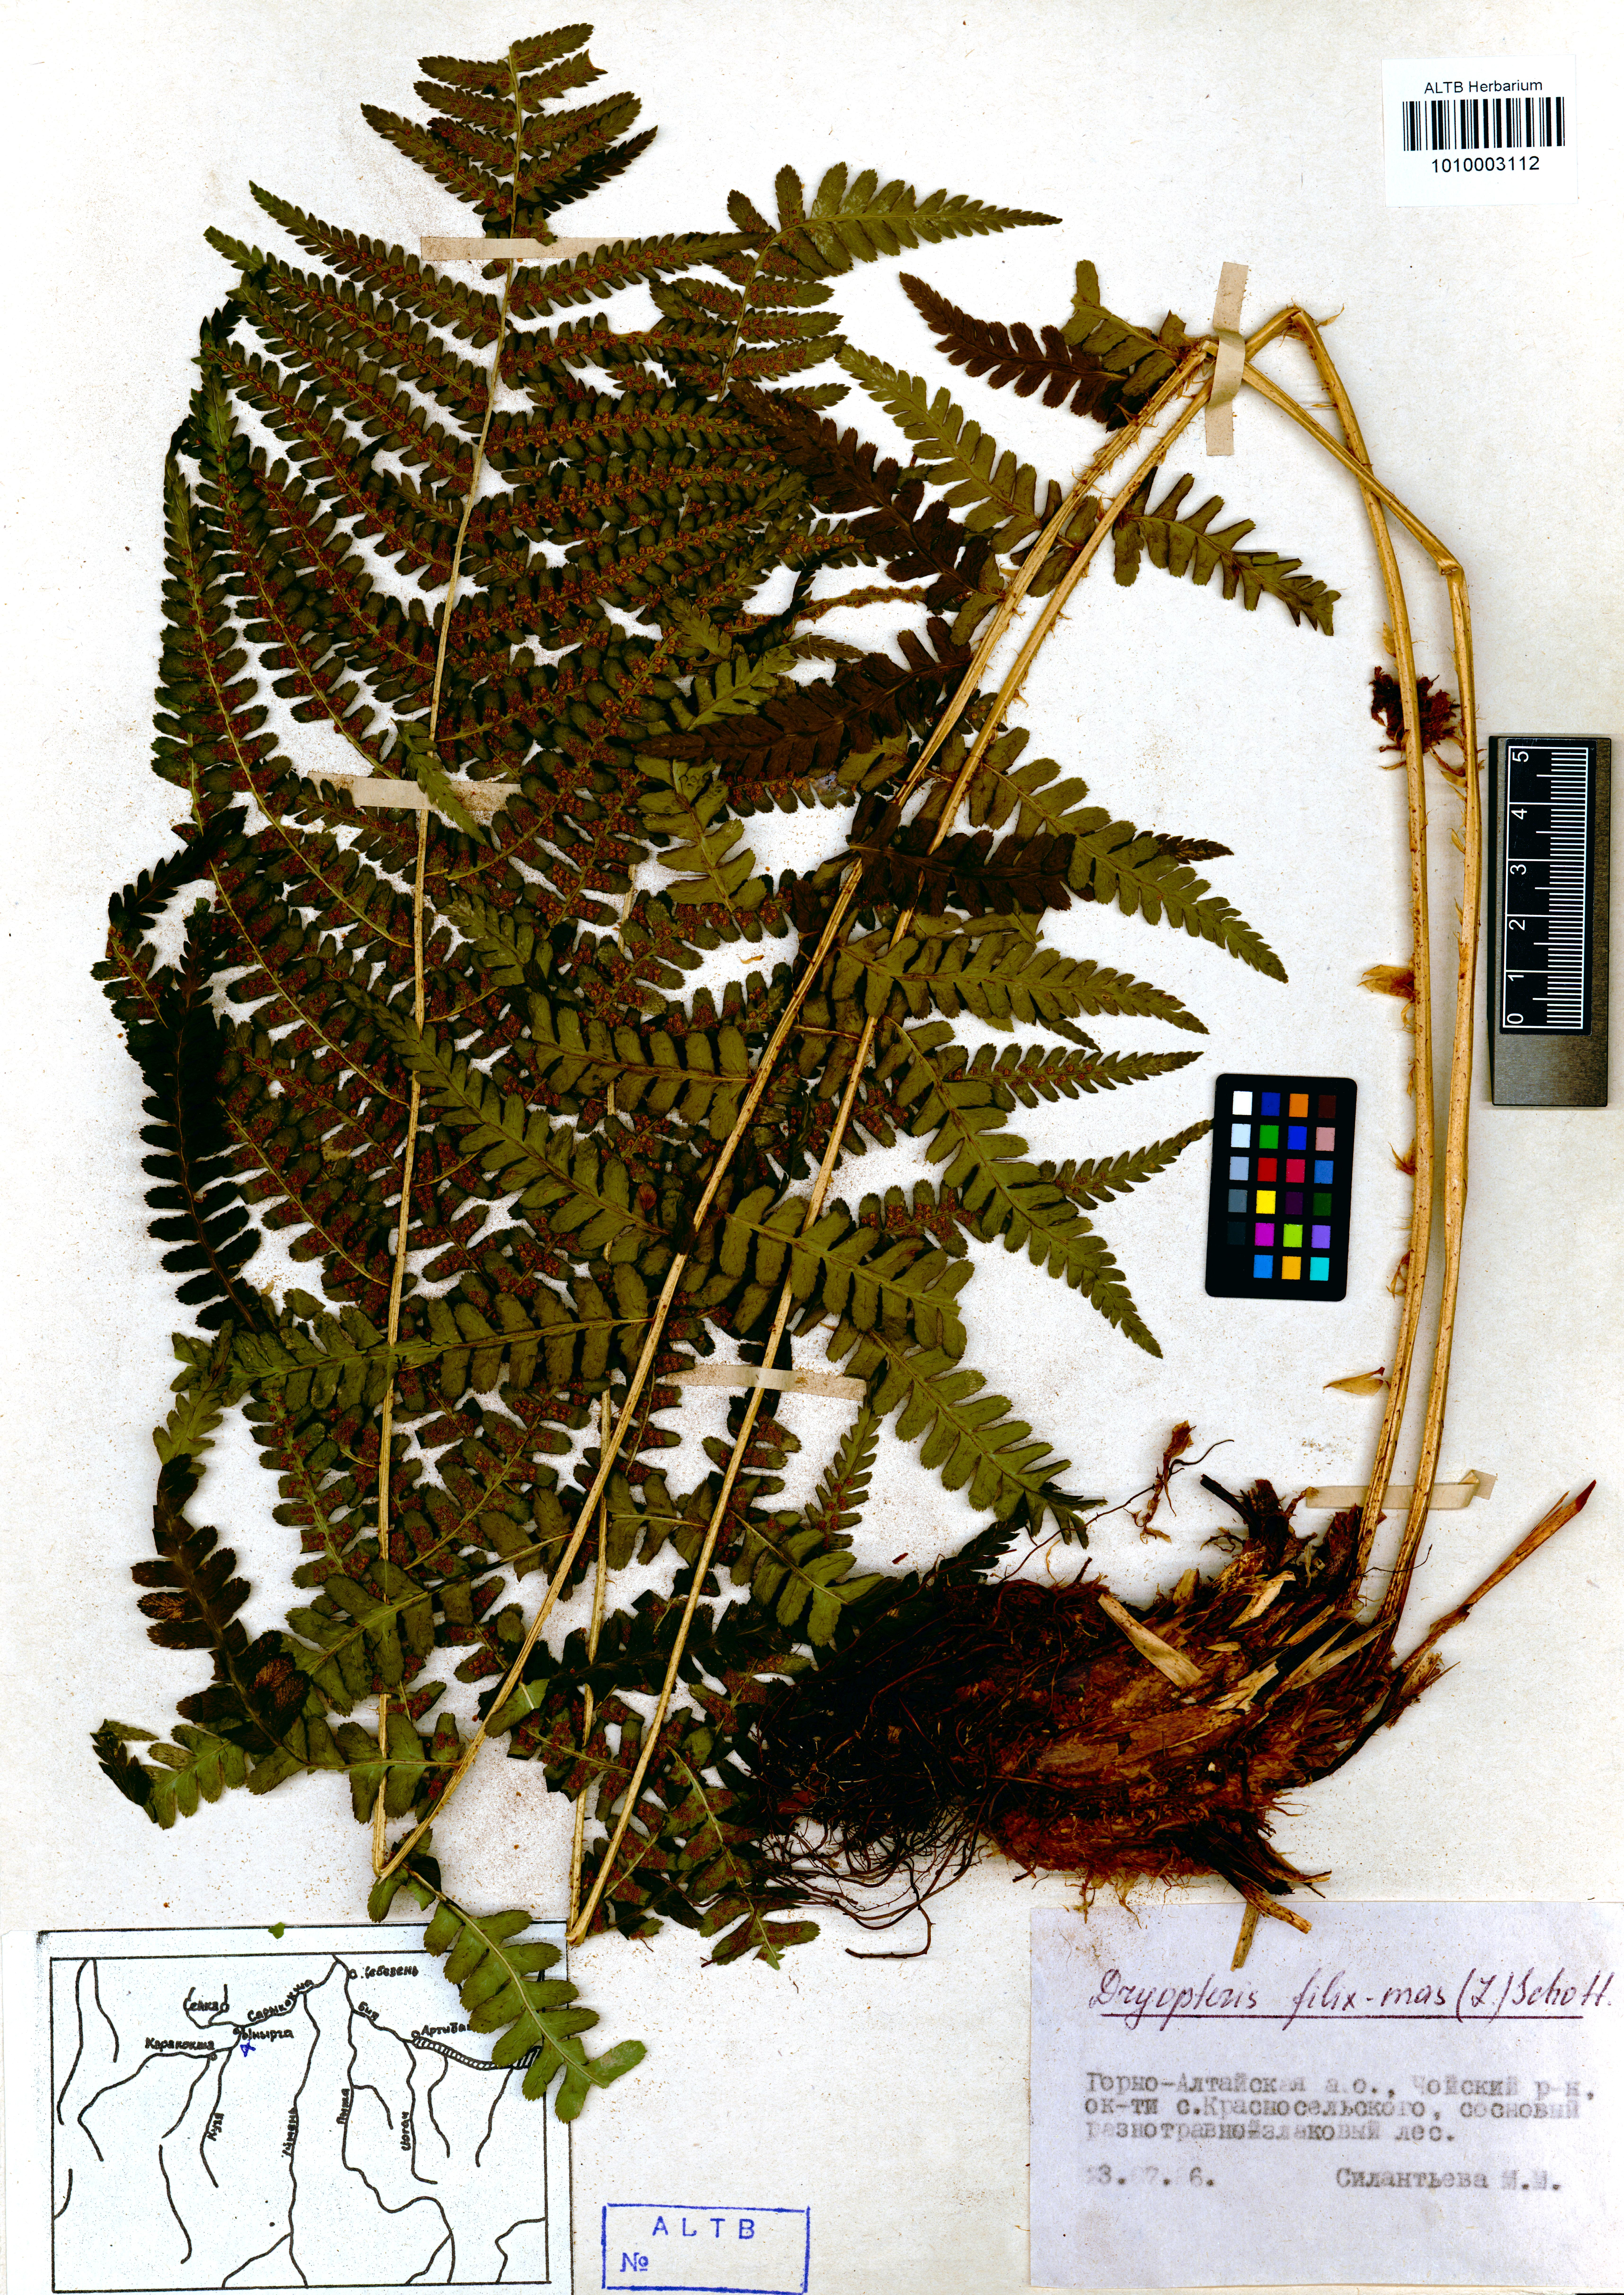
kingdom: Plantae
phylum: Tracheophyta
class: Polypodiopsida
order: Polypodiales
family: Dryopteridaceae
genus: Dryopteris
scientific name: Dryopteris filix-mas
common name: Male fern
